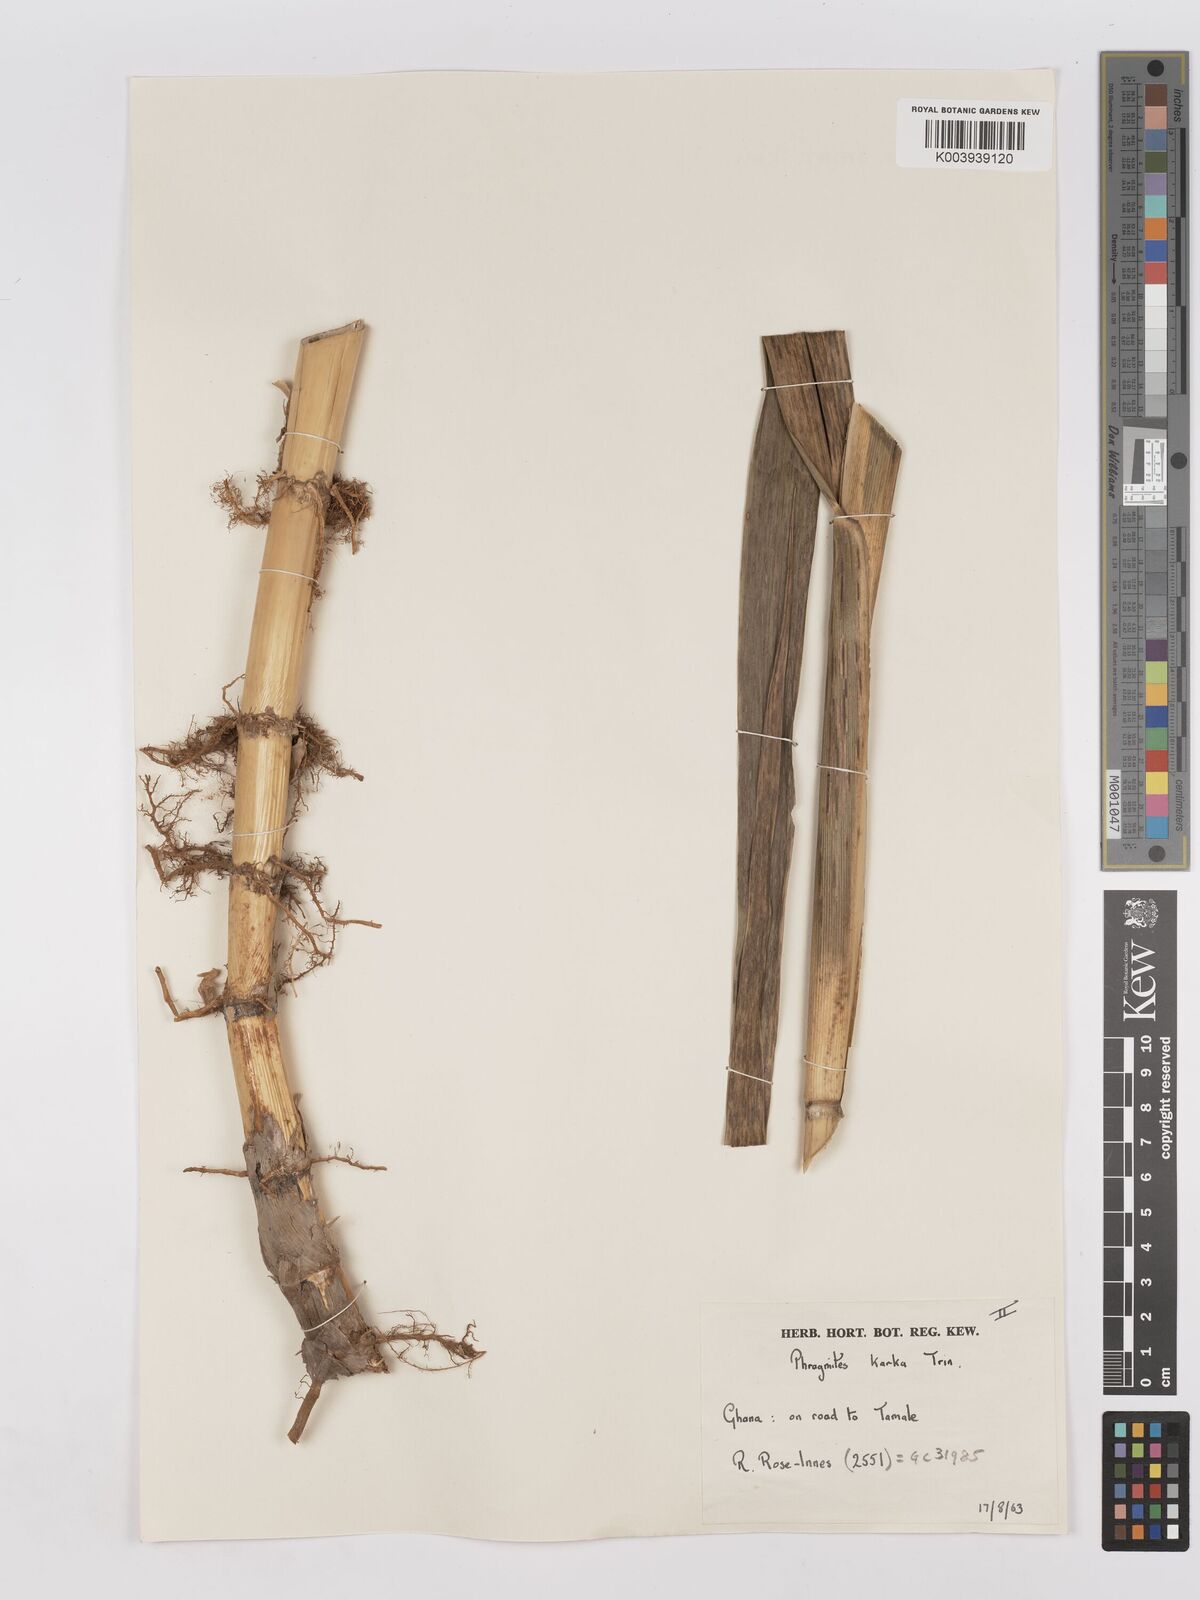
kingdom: Plantae
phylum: Tracheophyta
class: Liliopsida
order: Poales
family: Poaceae
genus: Phragmites
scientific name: Phragmites karka
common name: Tropical reed
